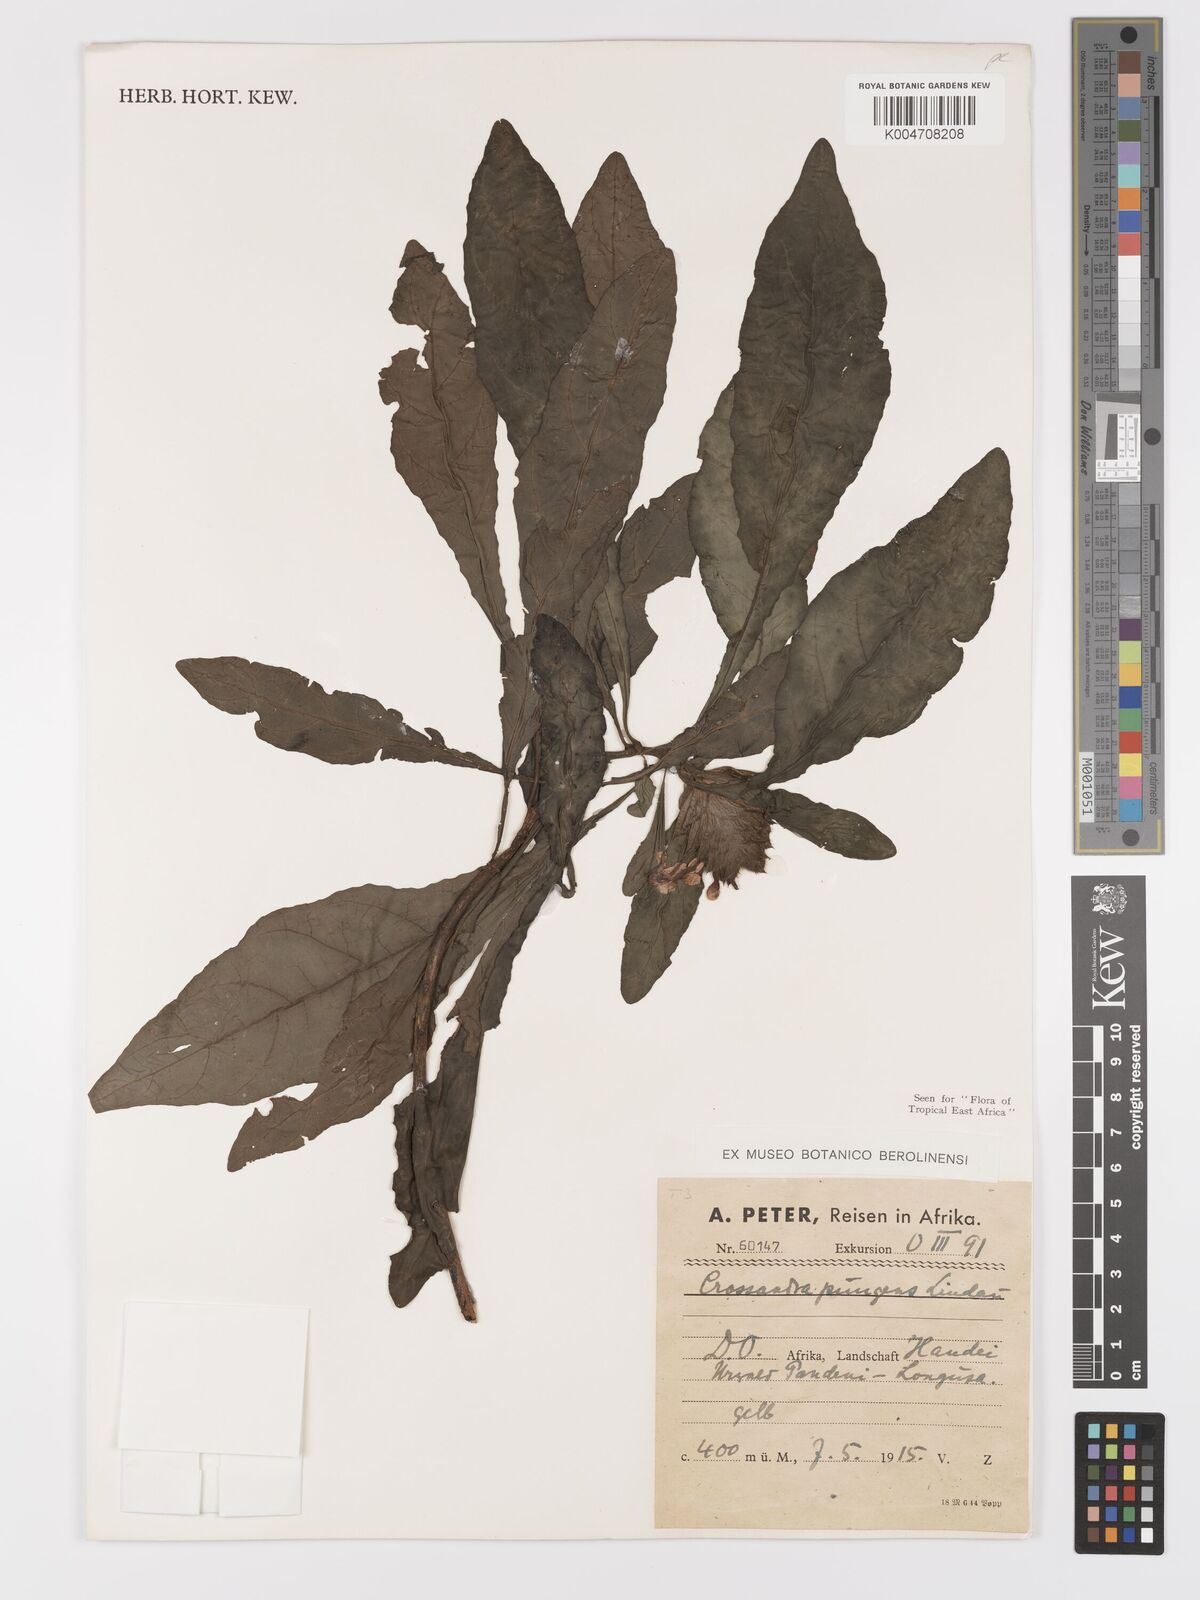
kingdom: Plantae
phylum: Tracheophyta
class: Magnoliopsida
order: Lamiales
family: Acanthaceae
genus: Crossandra
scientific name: Crossandra pungens
